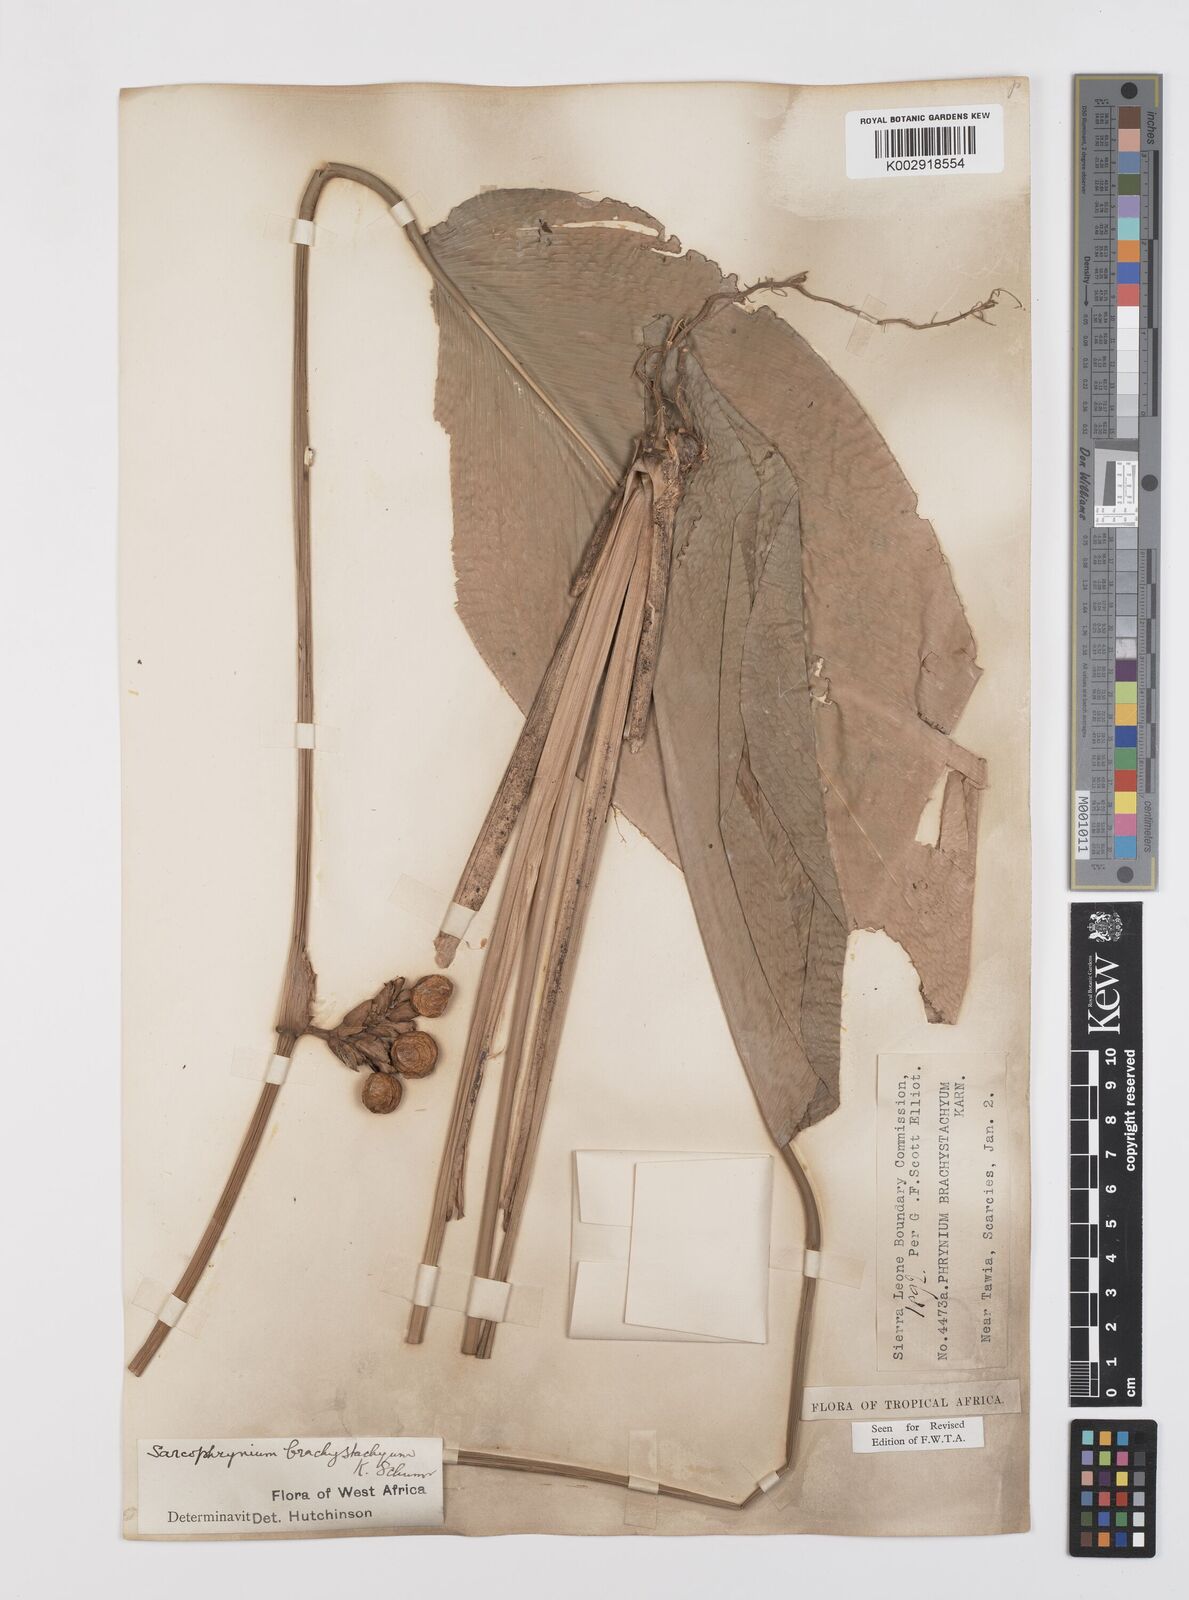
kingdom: Plantae
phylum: Tracheophyta
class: Liliopsida
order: Zingiberales
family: Marantaceae
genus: Sarcophrynium
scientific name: Sarcophrynium brachystachyum
